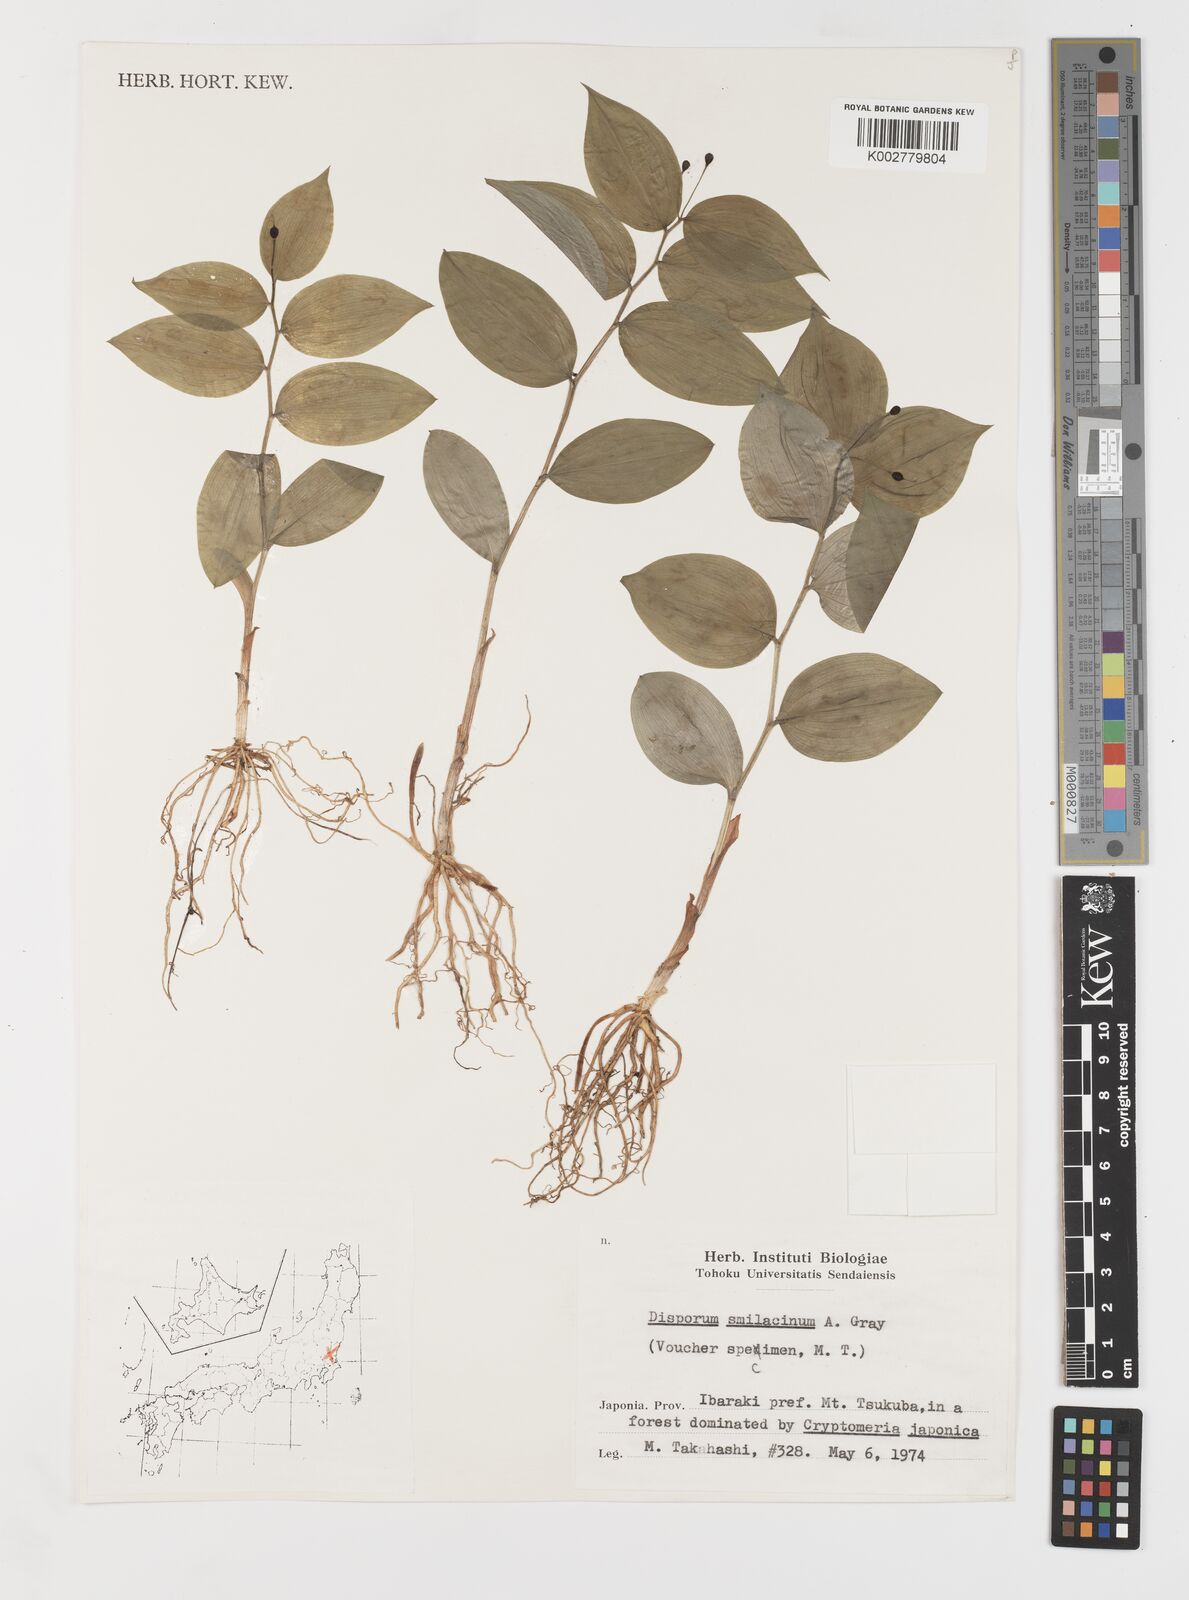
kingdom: Plantae
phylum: Tracheophyta
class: Liliopsida
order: Liliales
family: Colchicaceae
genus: Disporum
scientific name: Disporum smilacinum
